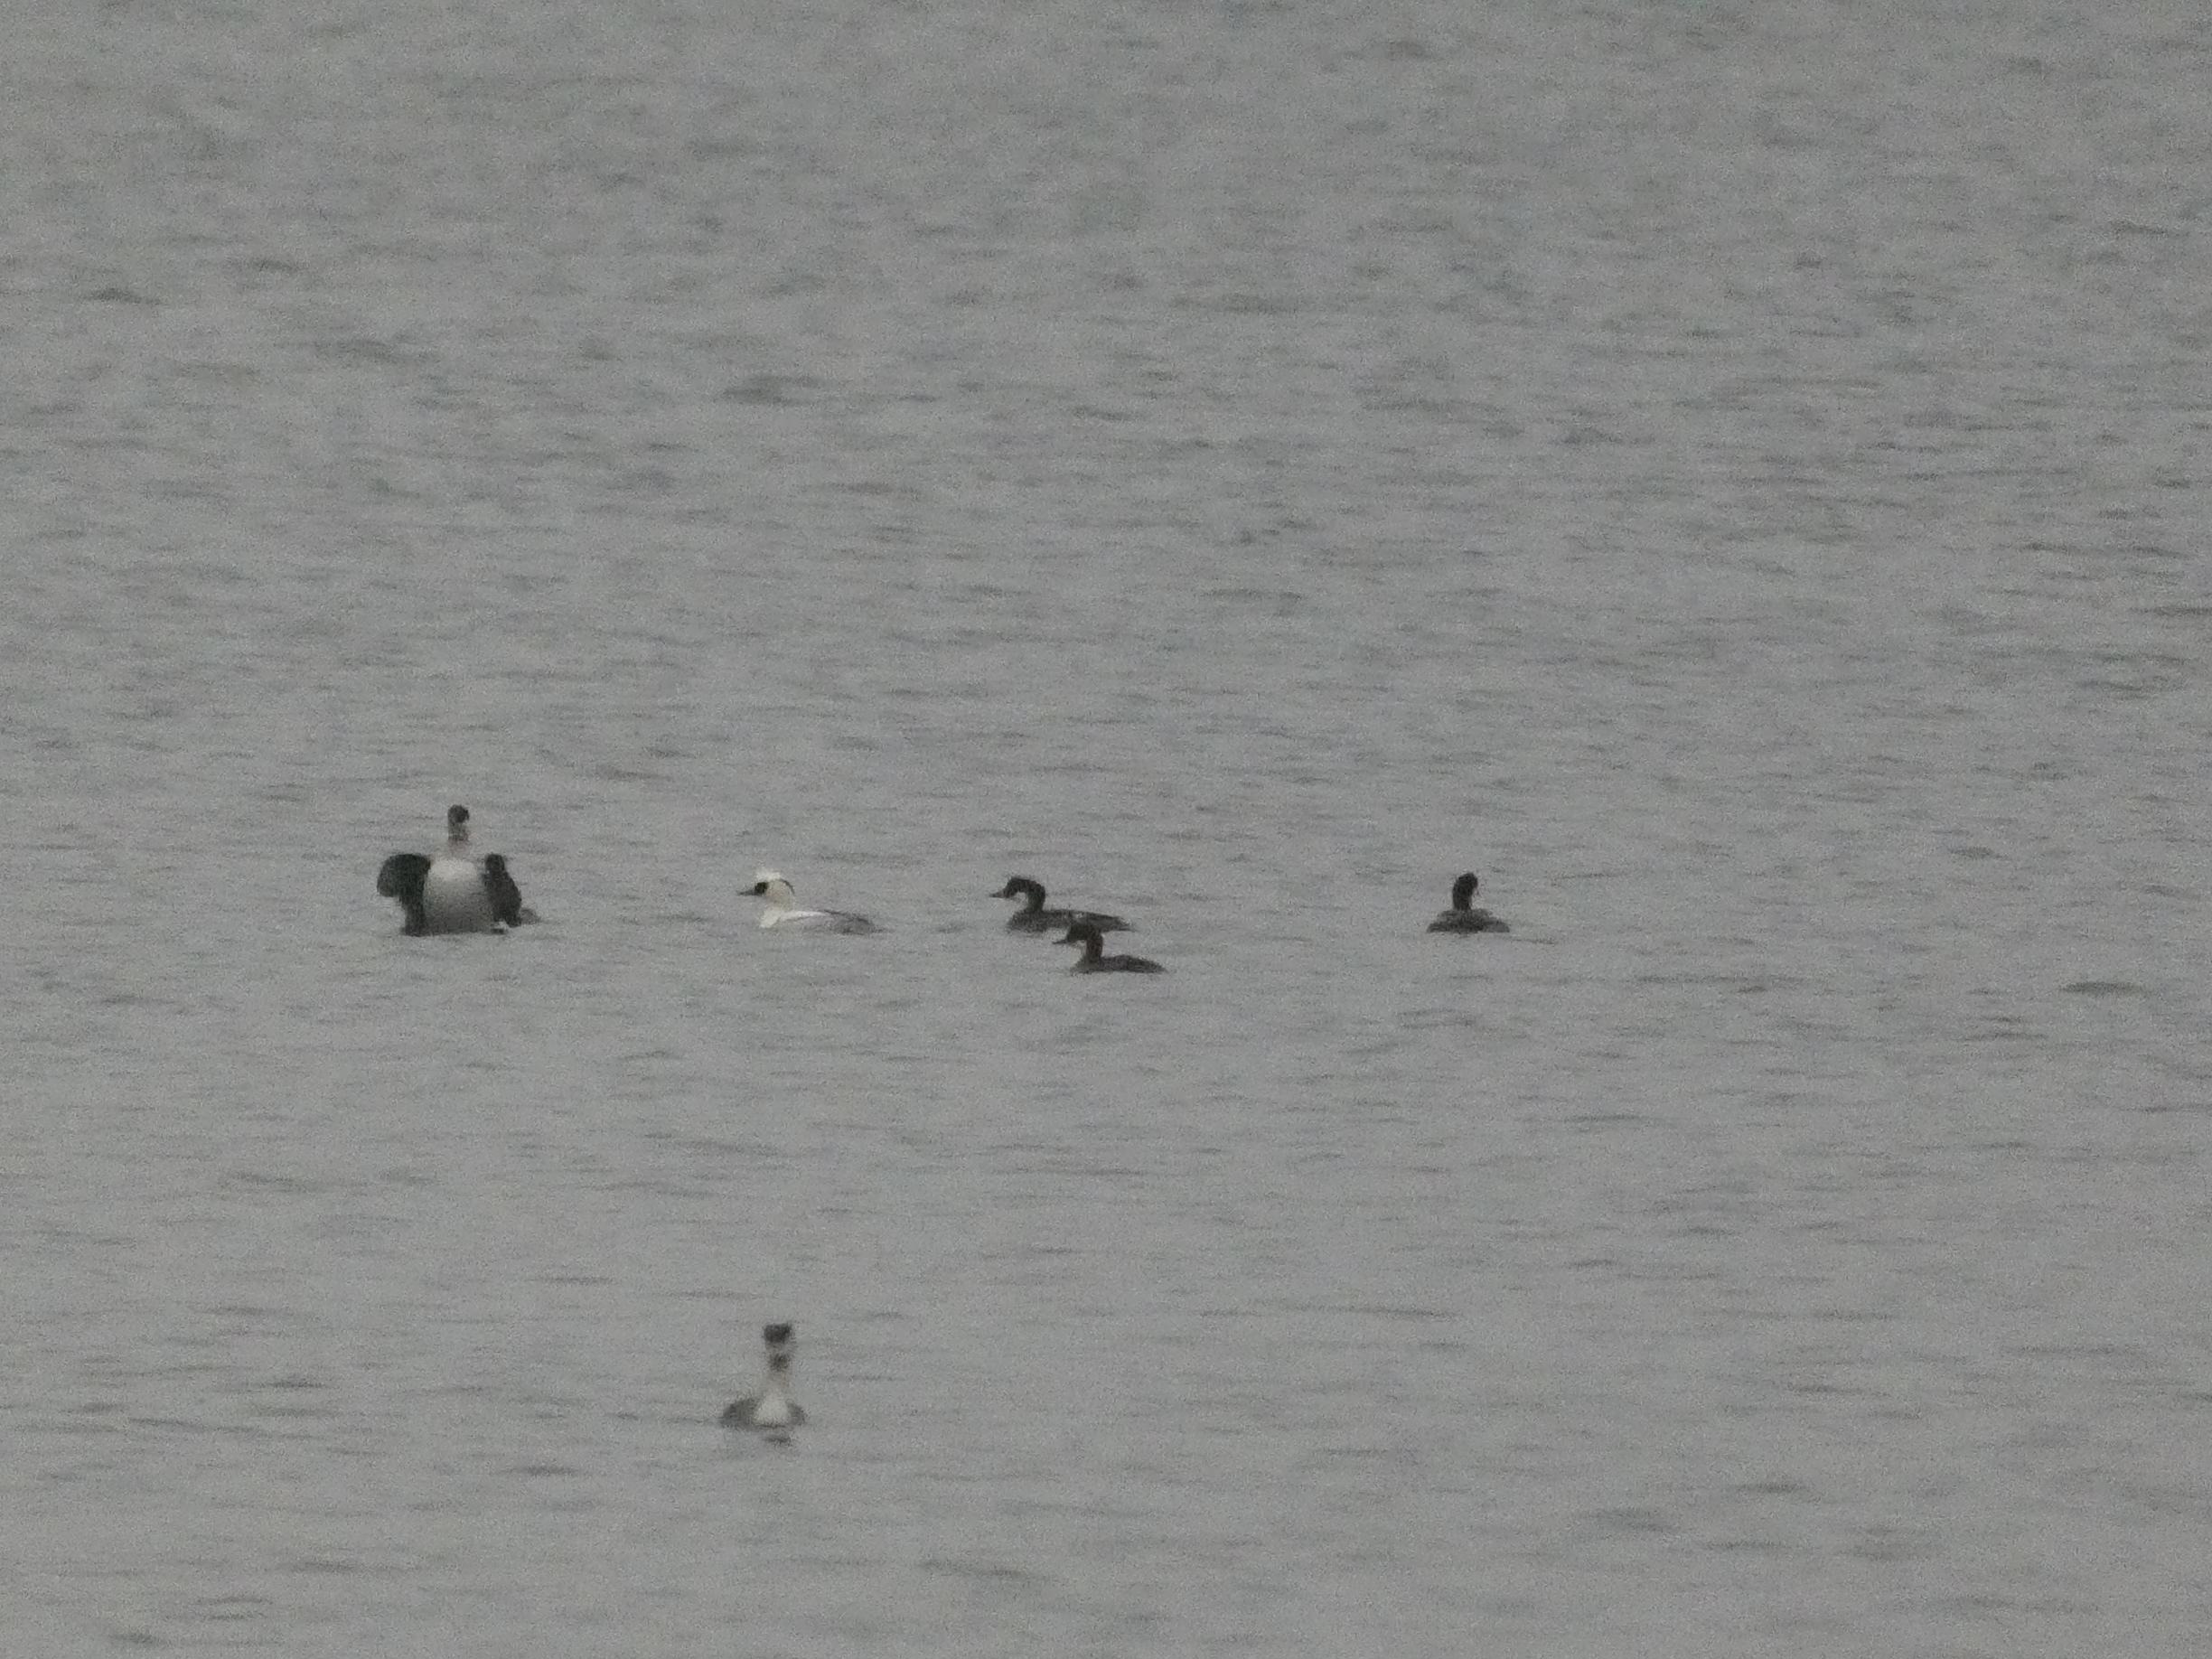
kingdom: Animalia
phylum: Chordata
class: Aves
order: Anseriformes
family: Anatidae
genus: Mergellus
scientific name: Mergellus albellus
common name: Lille skallesluger
